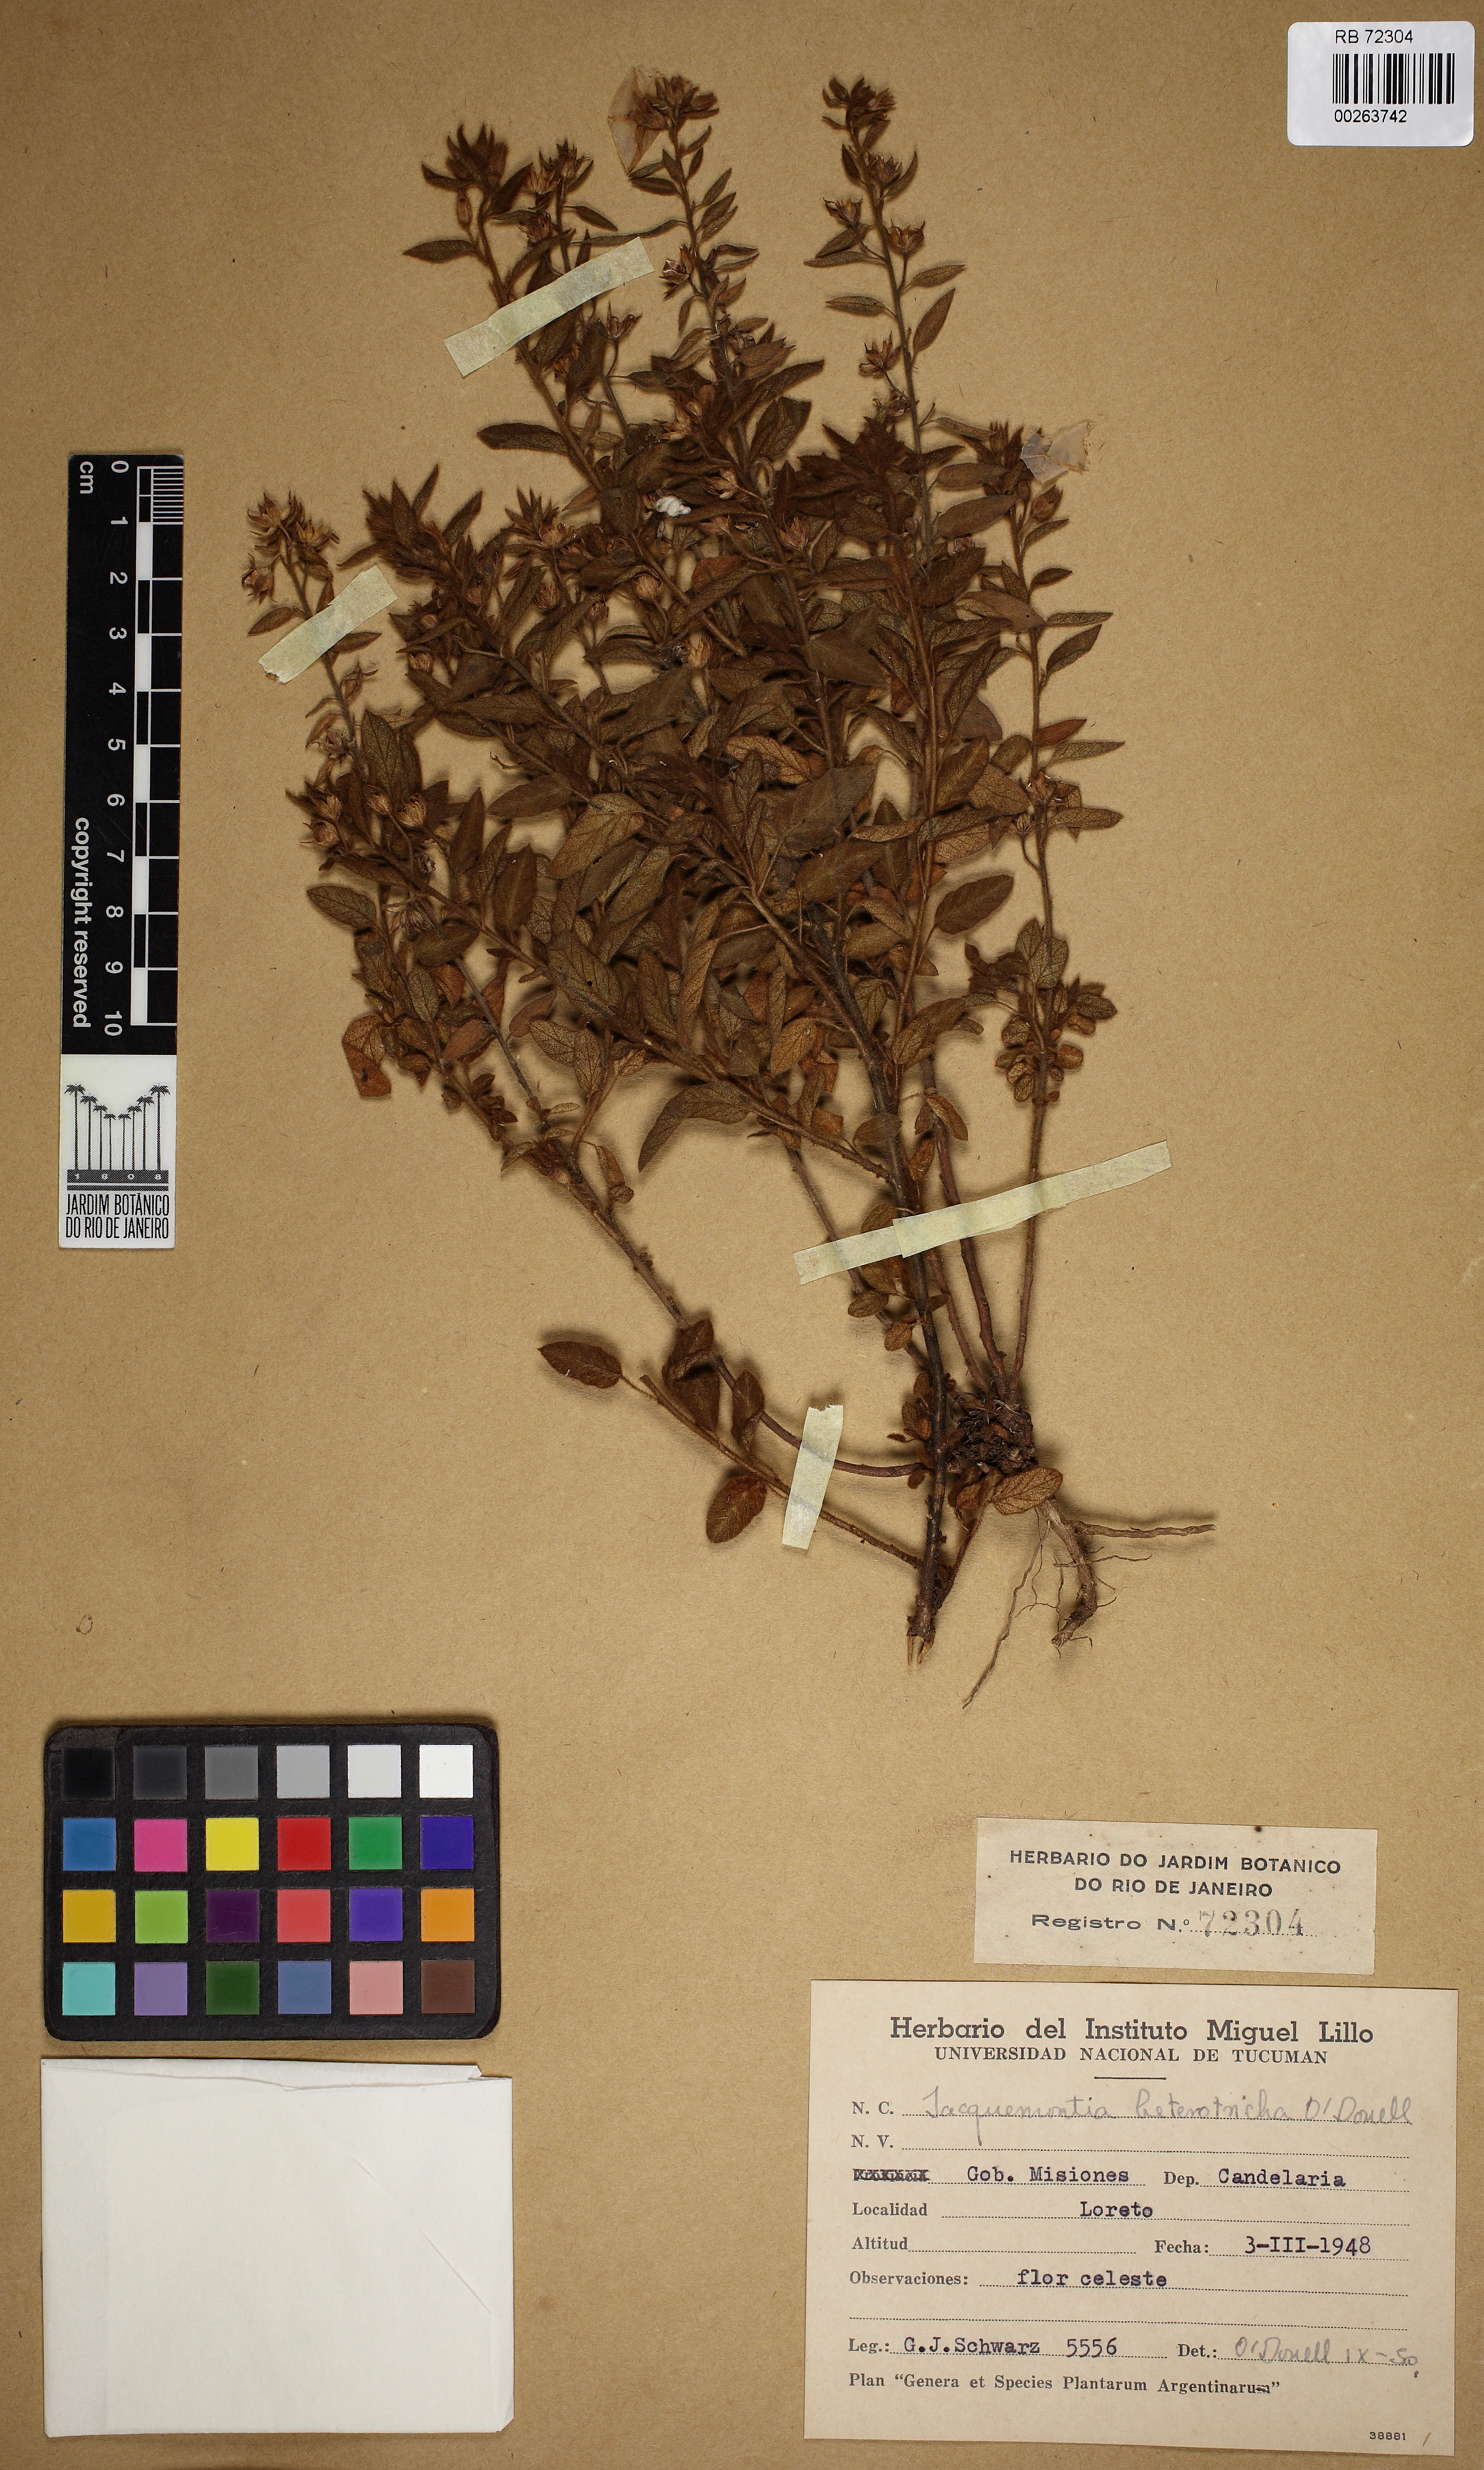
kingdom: Plantae
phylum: Tracheophyta
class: Magnoliopsida
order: Solanales
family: Convolvulaceae
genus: Jacquemontia
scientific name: Jacquemontia heterotricha
